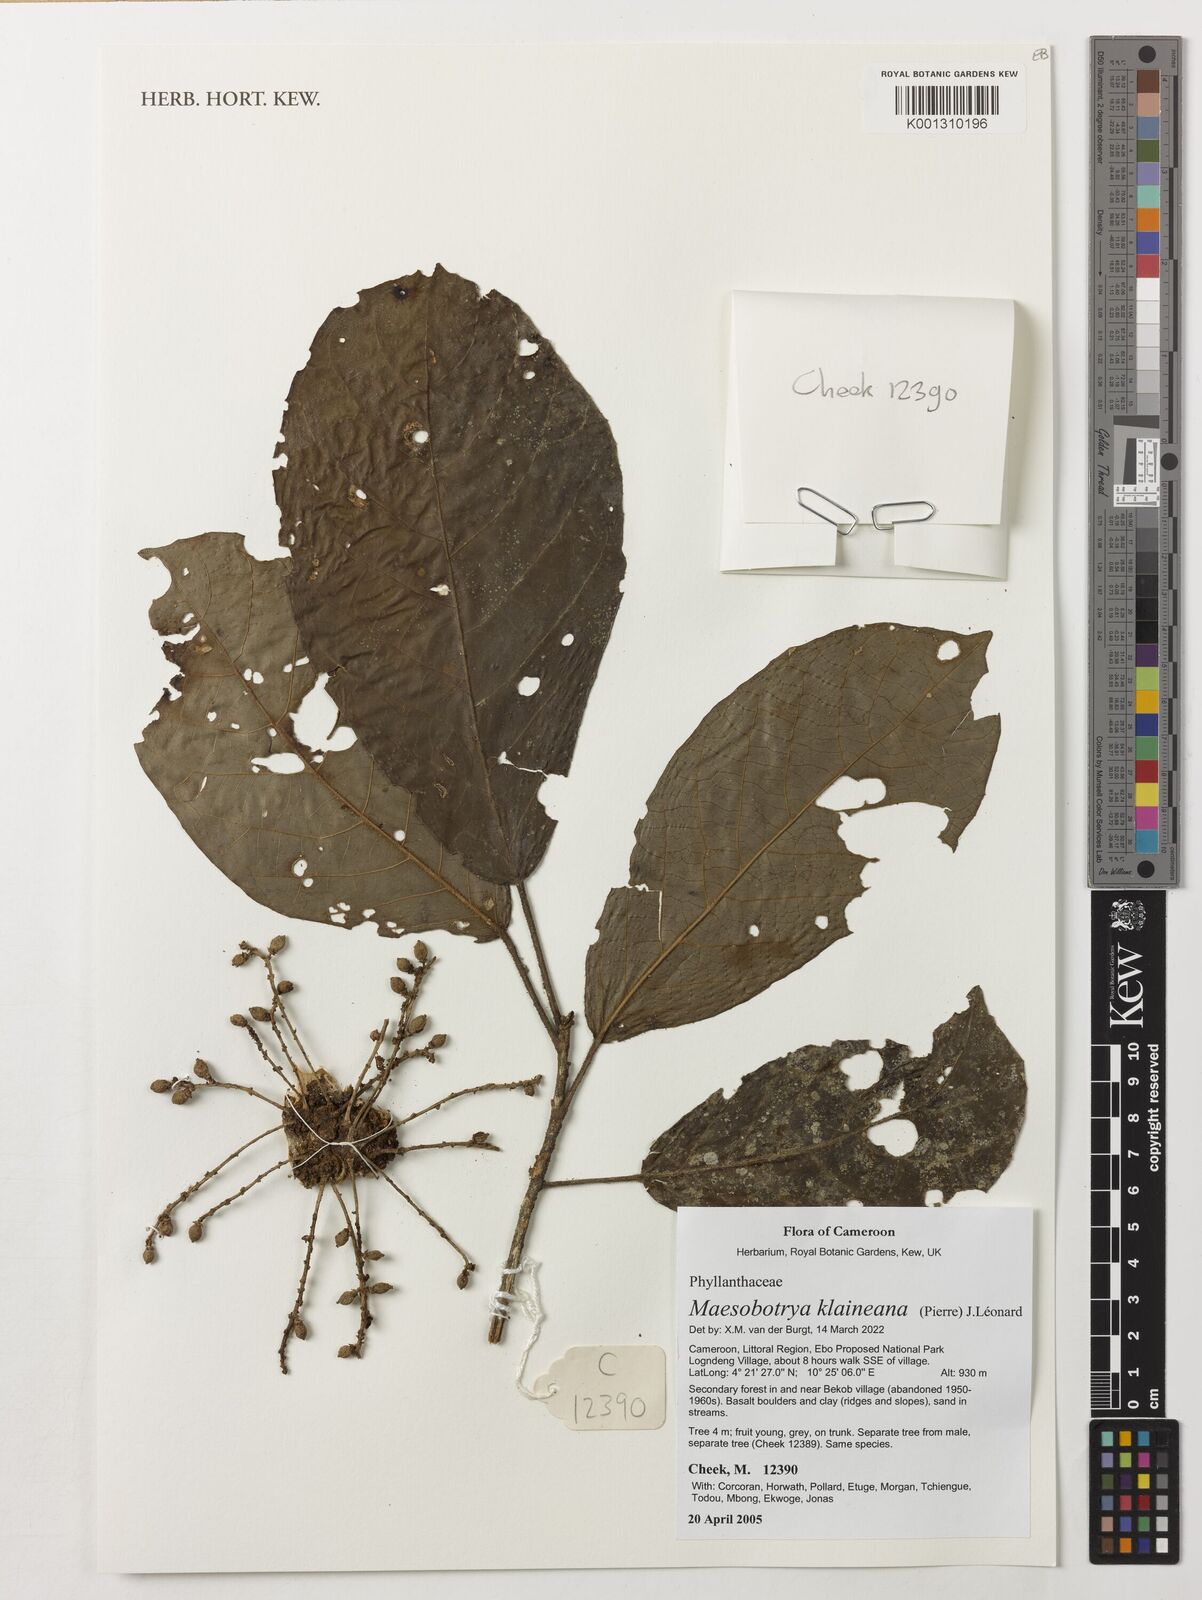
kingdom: Plantae
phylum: Tracheophyta
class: Magnoliopsida
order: Malpighiales
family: Phyllanthaceae
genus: Maesobotrya
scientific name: Maesobotrya klaineana
